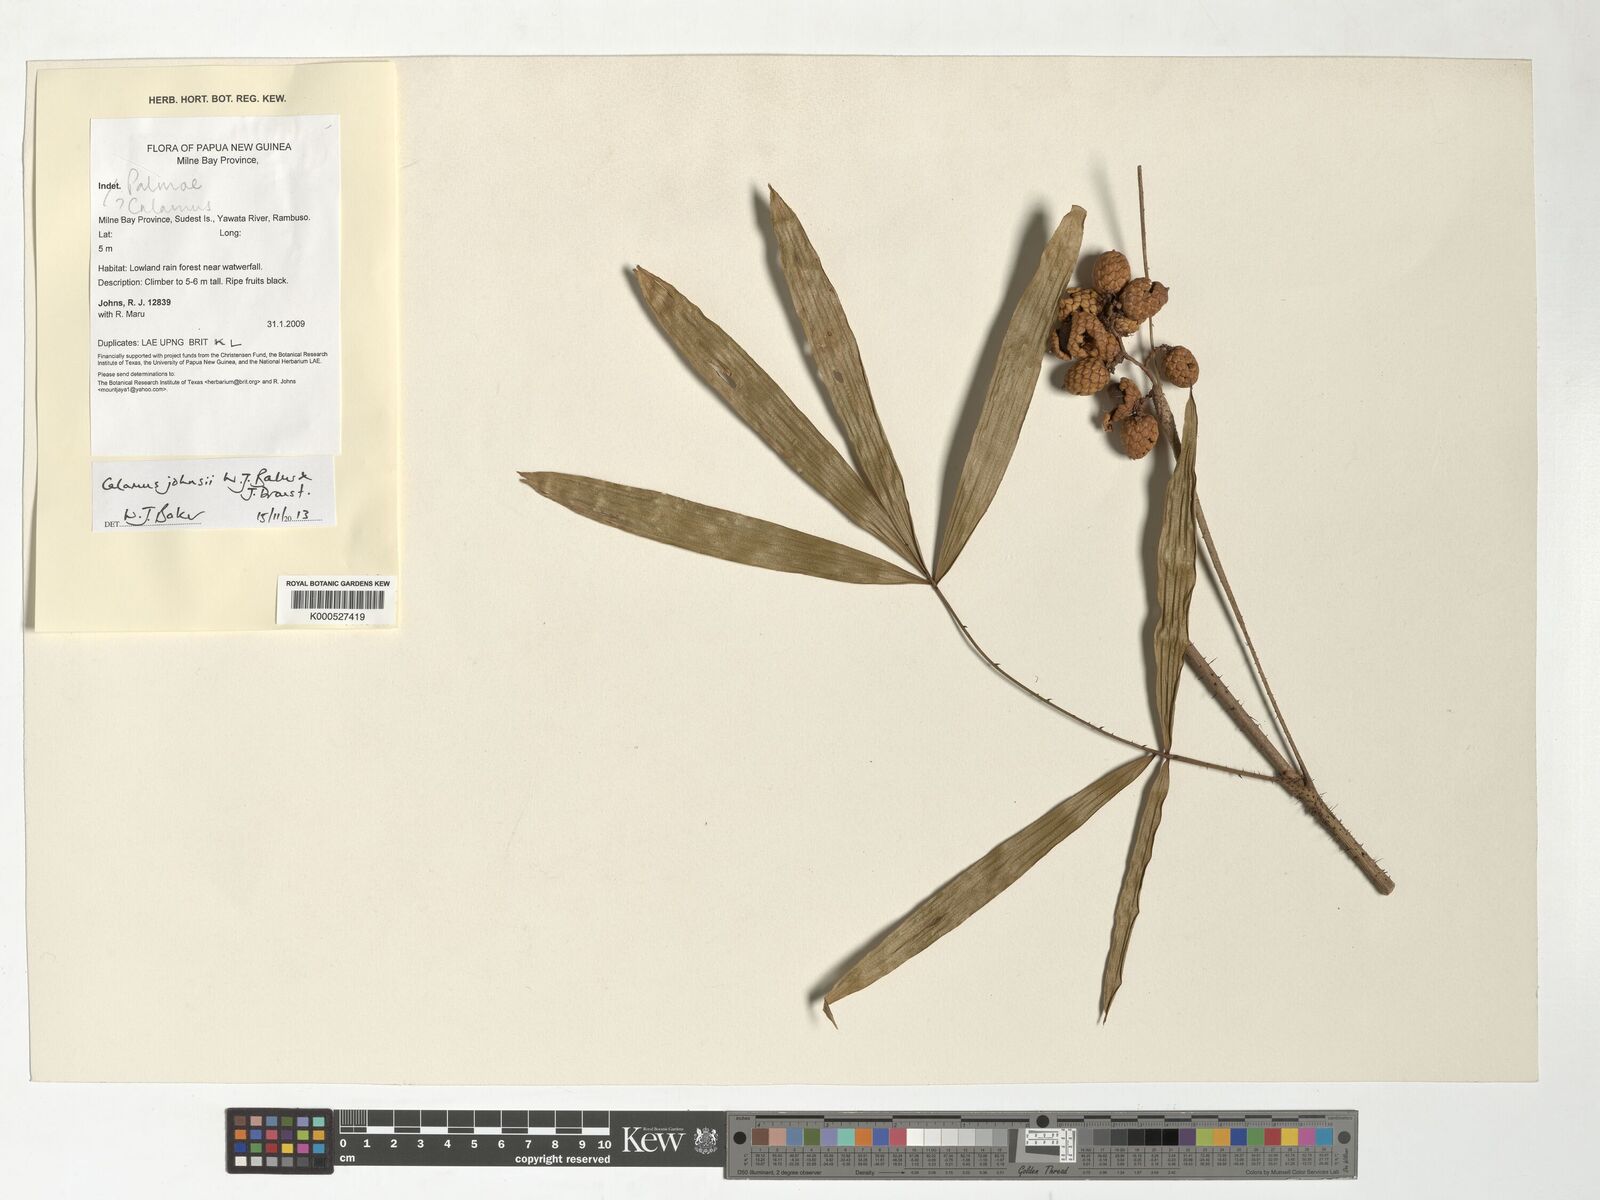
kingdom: Plantae
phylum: Tracheophyta
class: Liliopsida
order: Arecales
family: Arecaceae
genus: Calamus
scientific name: Calamus johnsii
